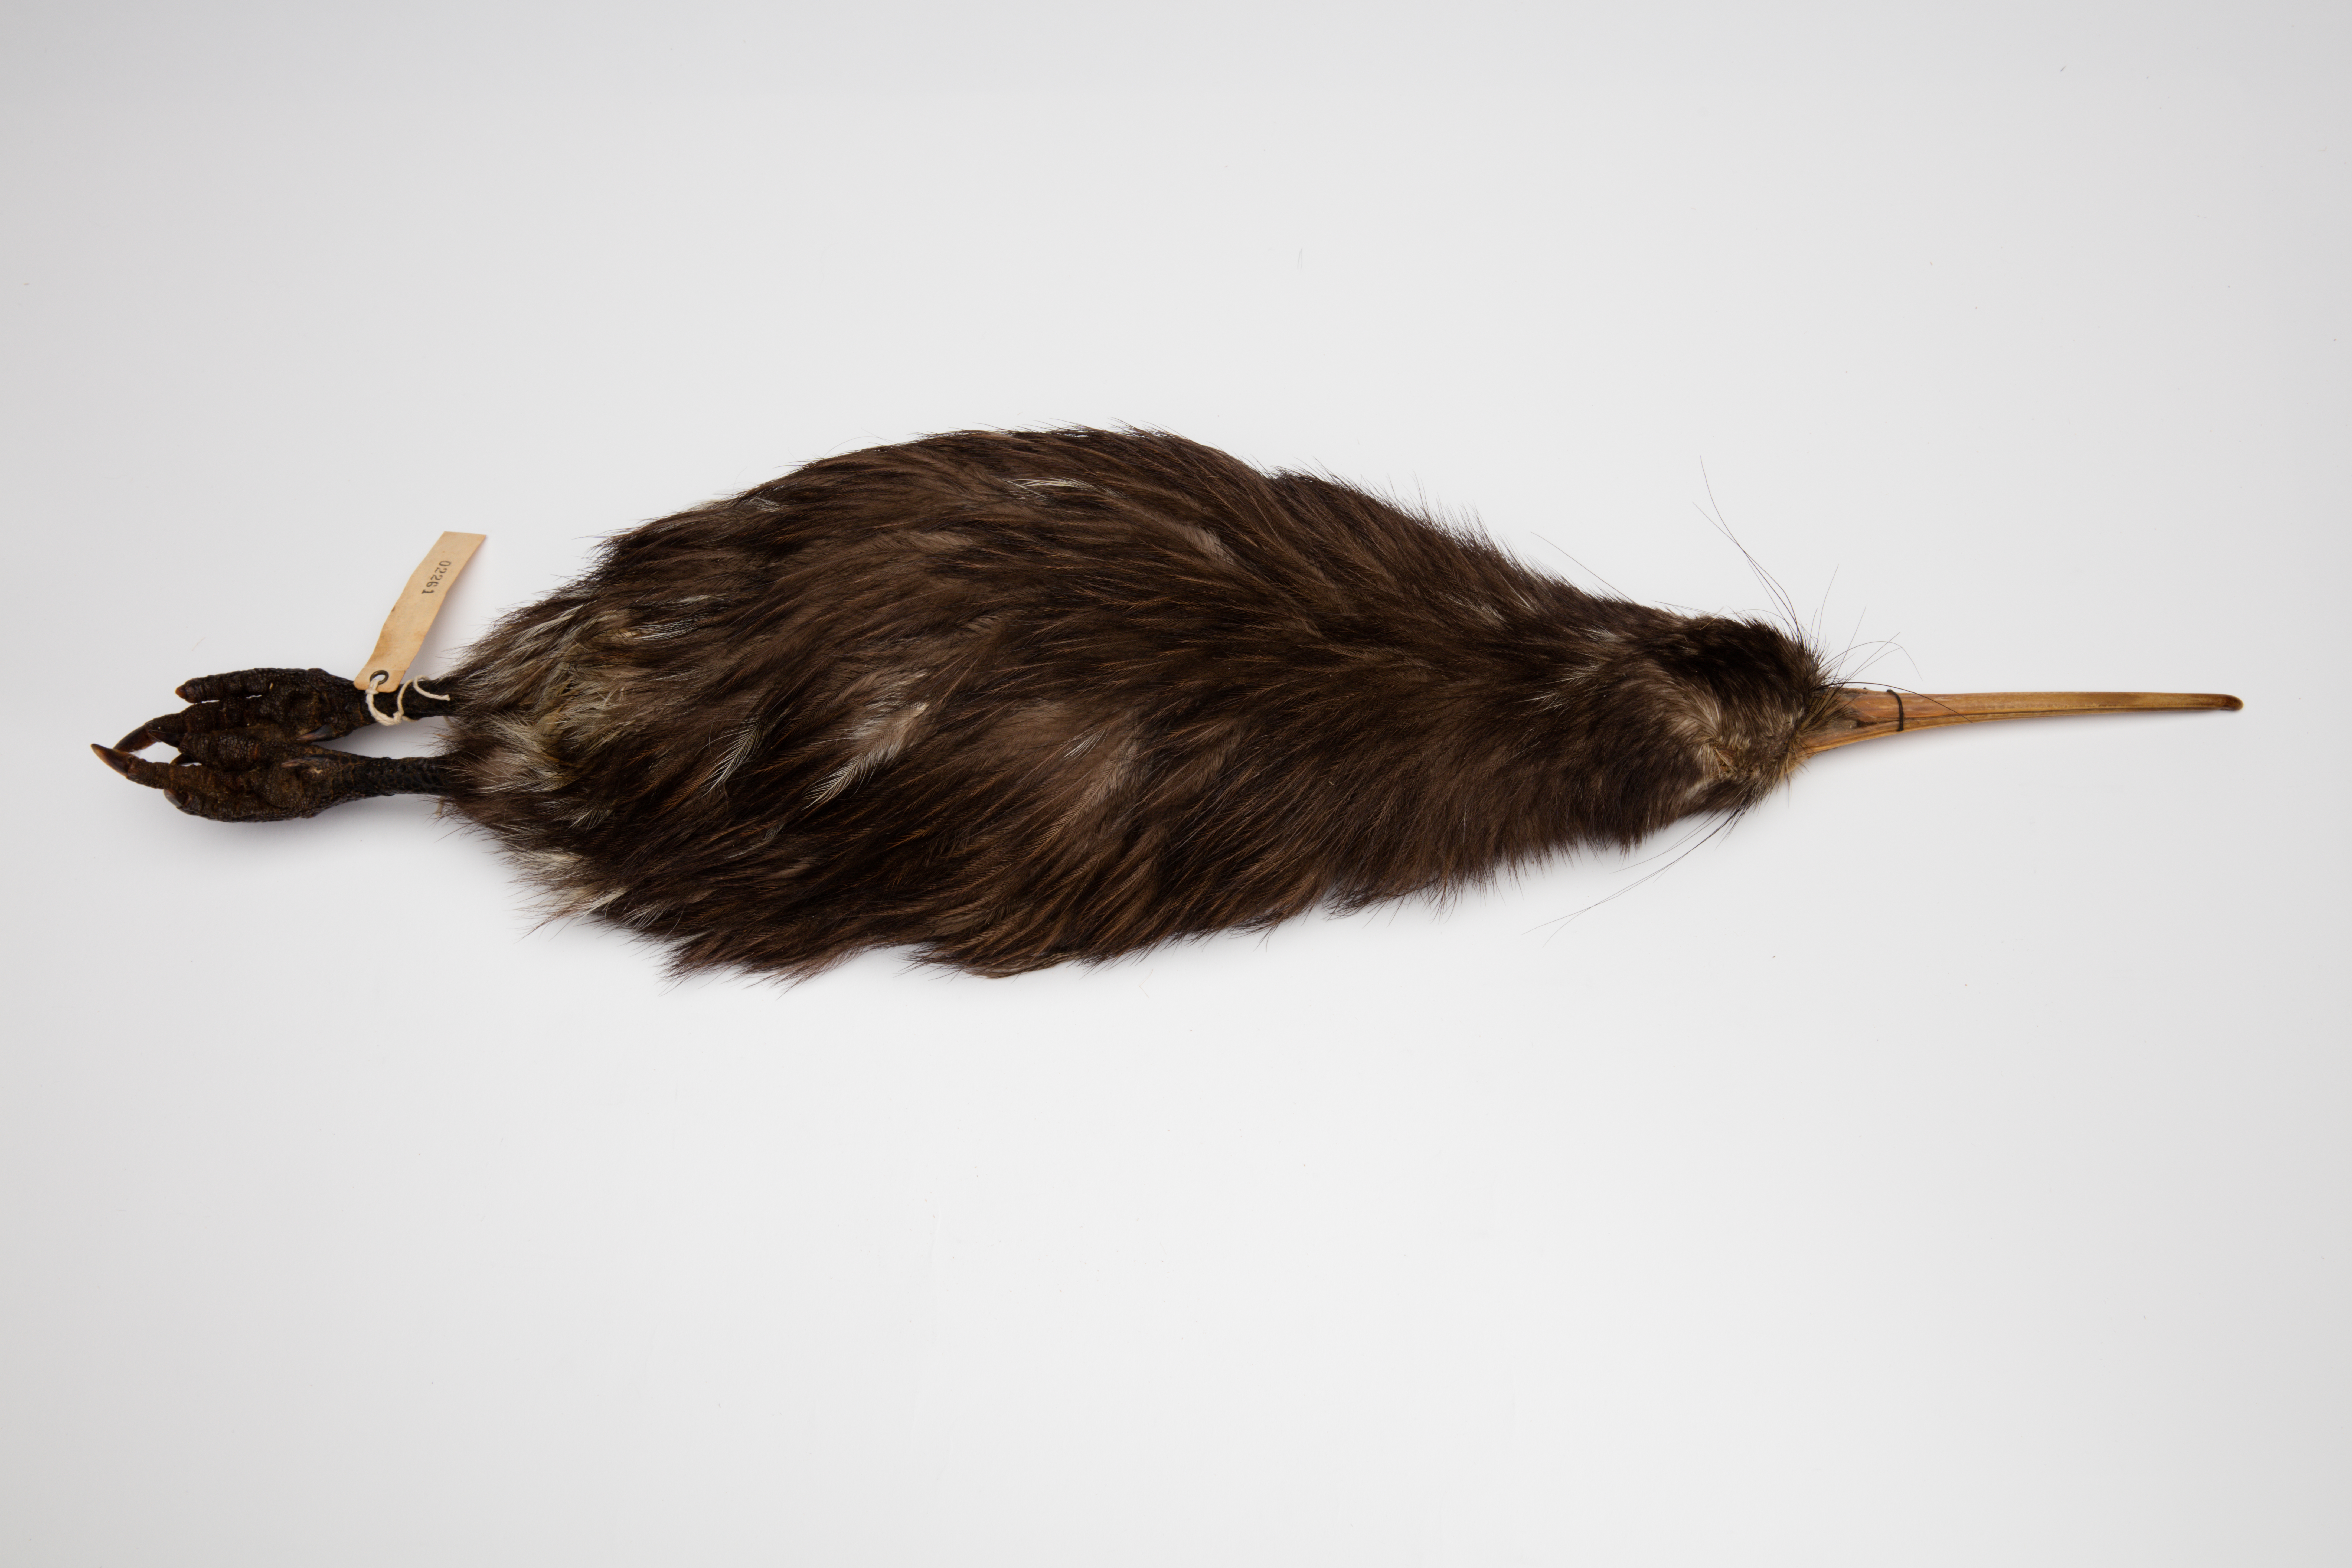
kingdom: Animalia
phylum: Chordata
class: Aves
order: Apterygiformes
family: Apterygidae
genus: Apteryx
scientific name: Apteryx mantelli
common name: North island brown kiwi
